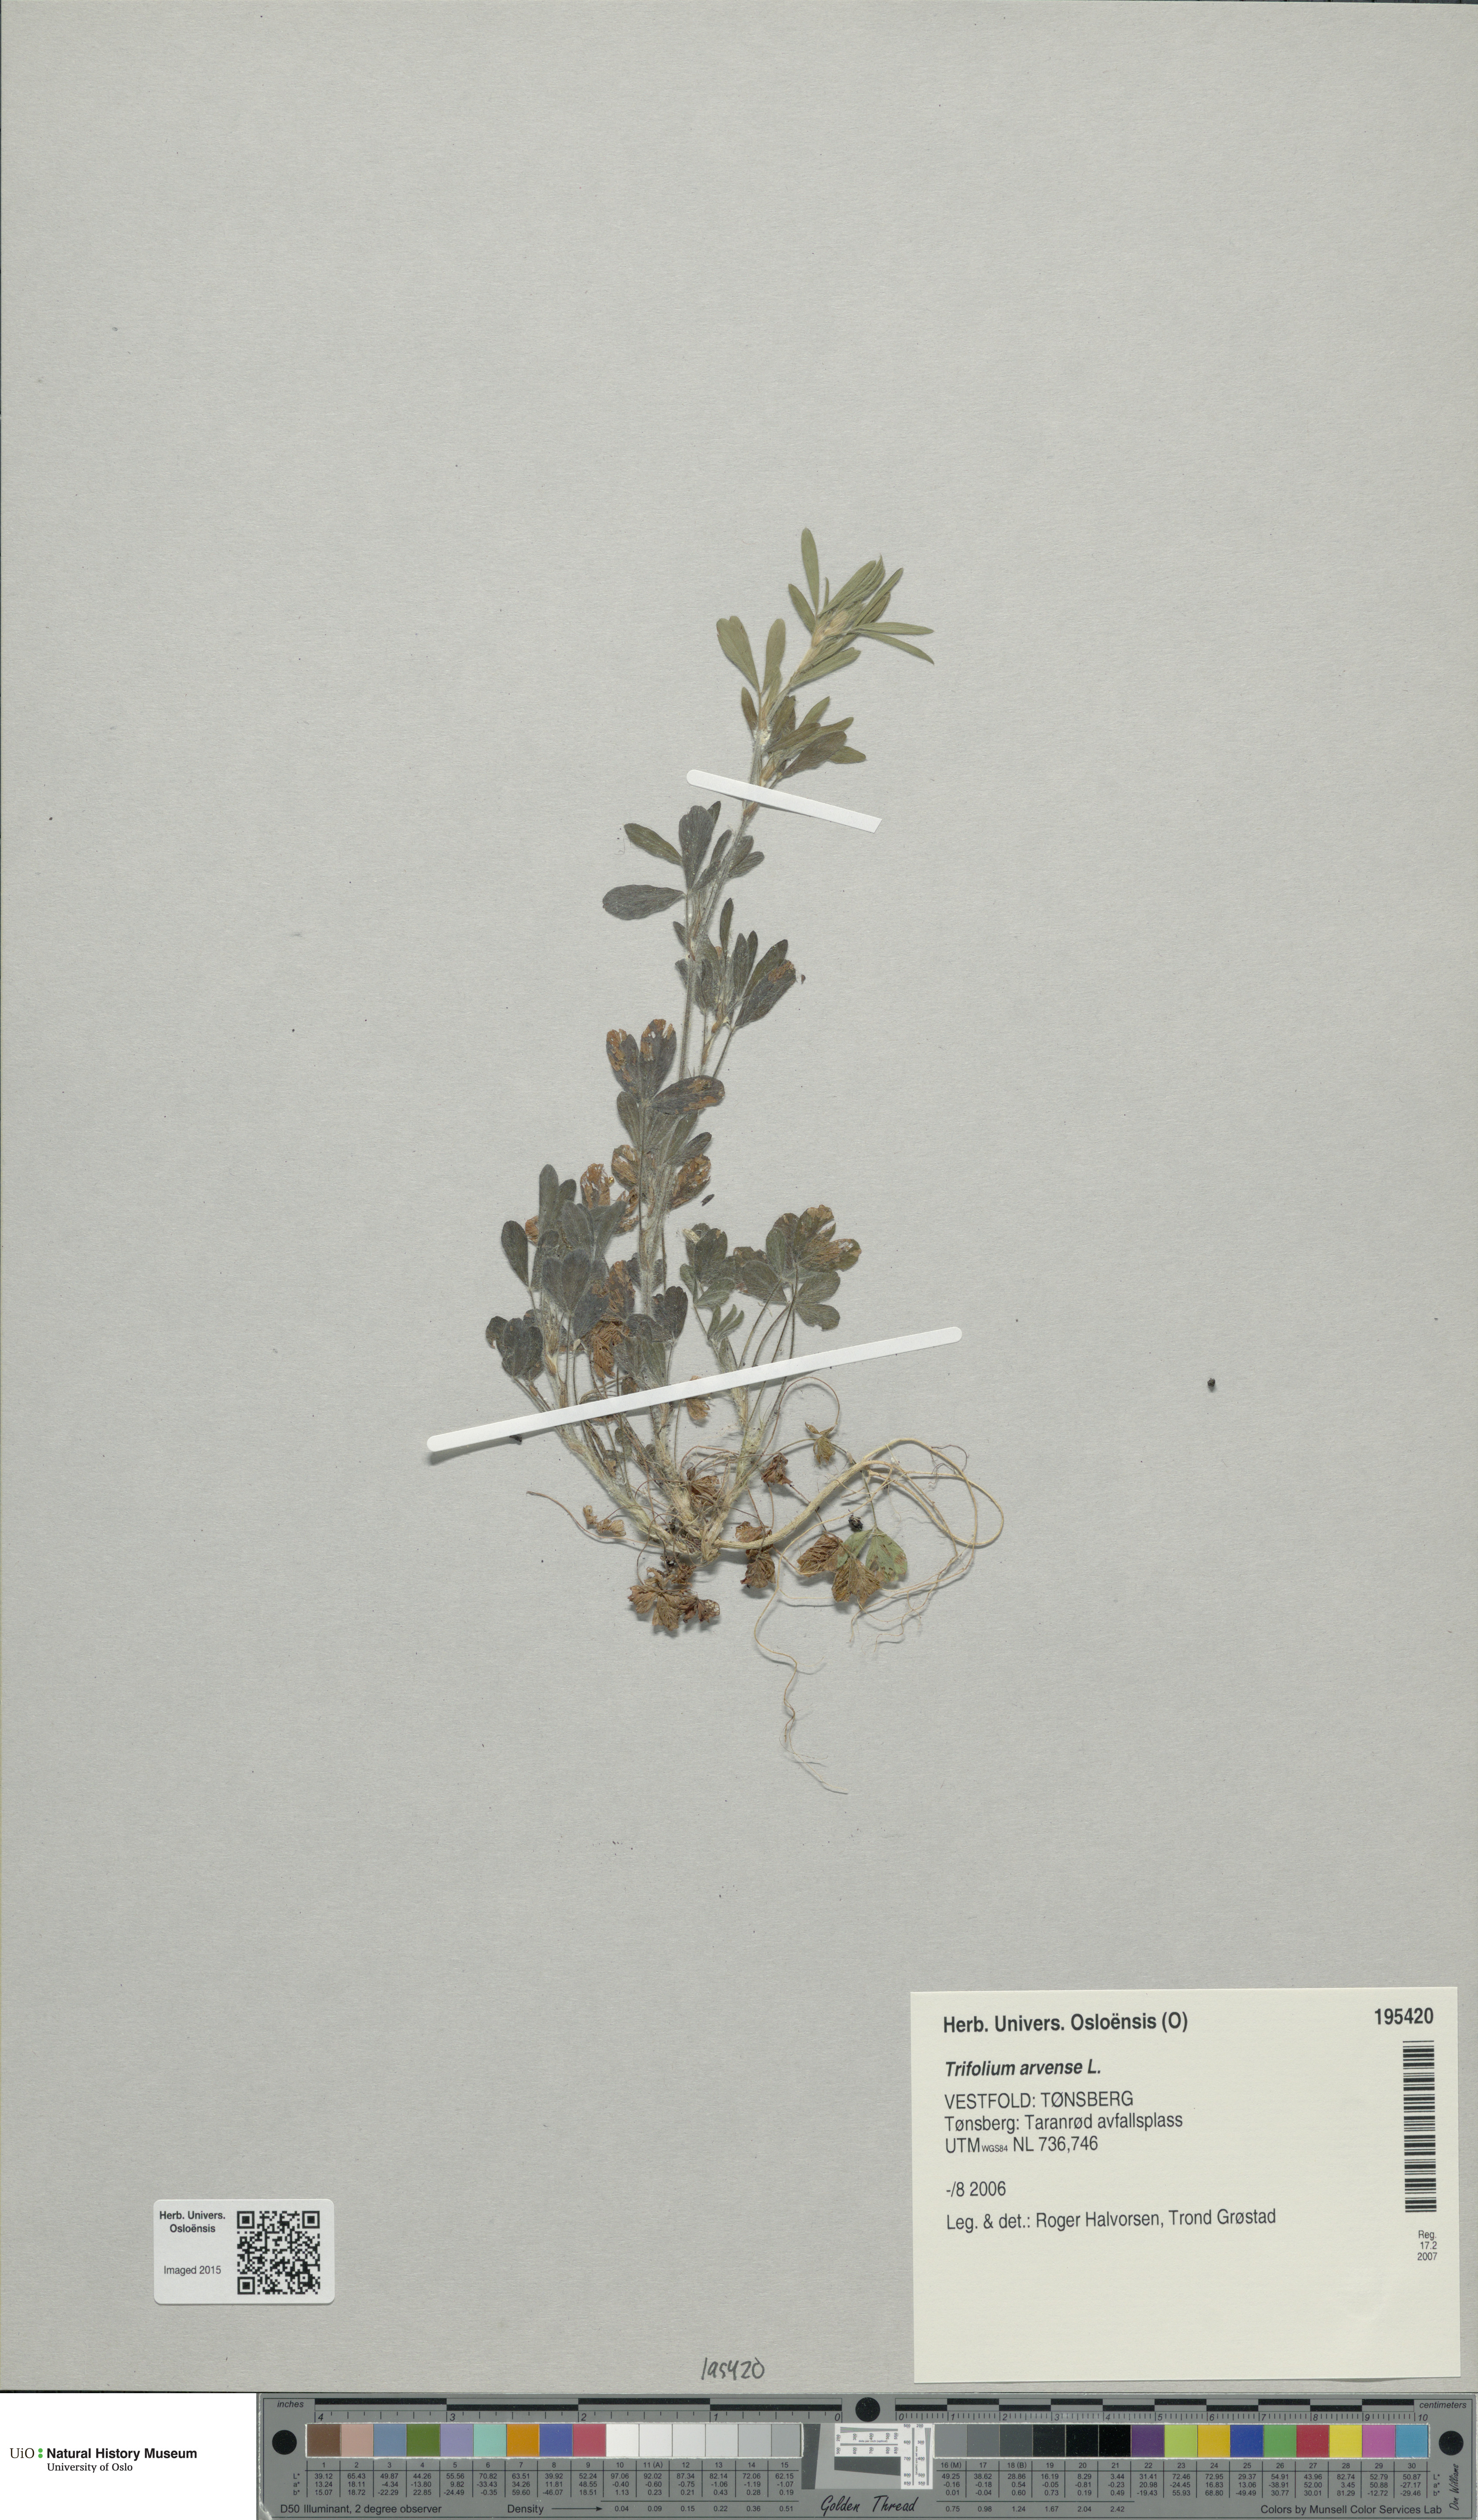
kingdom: Plantae
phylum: Tracheophyta
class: Magnoliopsida
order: Fabales
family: Fabaceae
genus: Trifolium
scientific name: Trifolium arvense
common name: Hare's-foot clover
